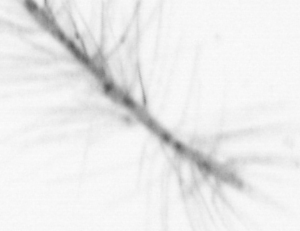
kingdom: Chromista
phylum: Ochrophyta
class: Bacillariophyceae
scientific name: Bacillariophyceae
